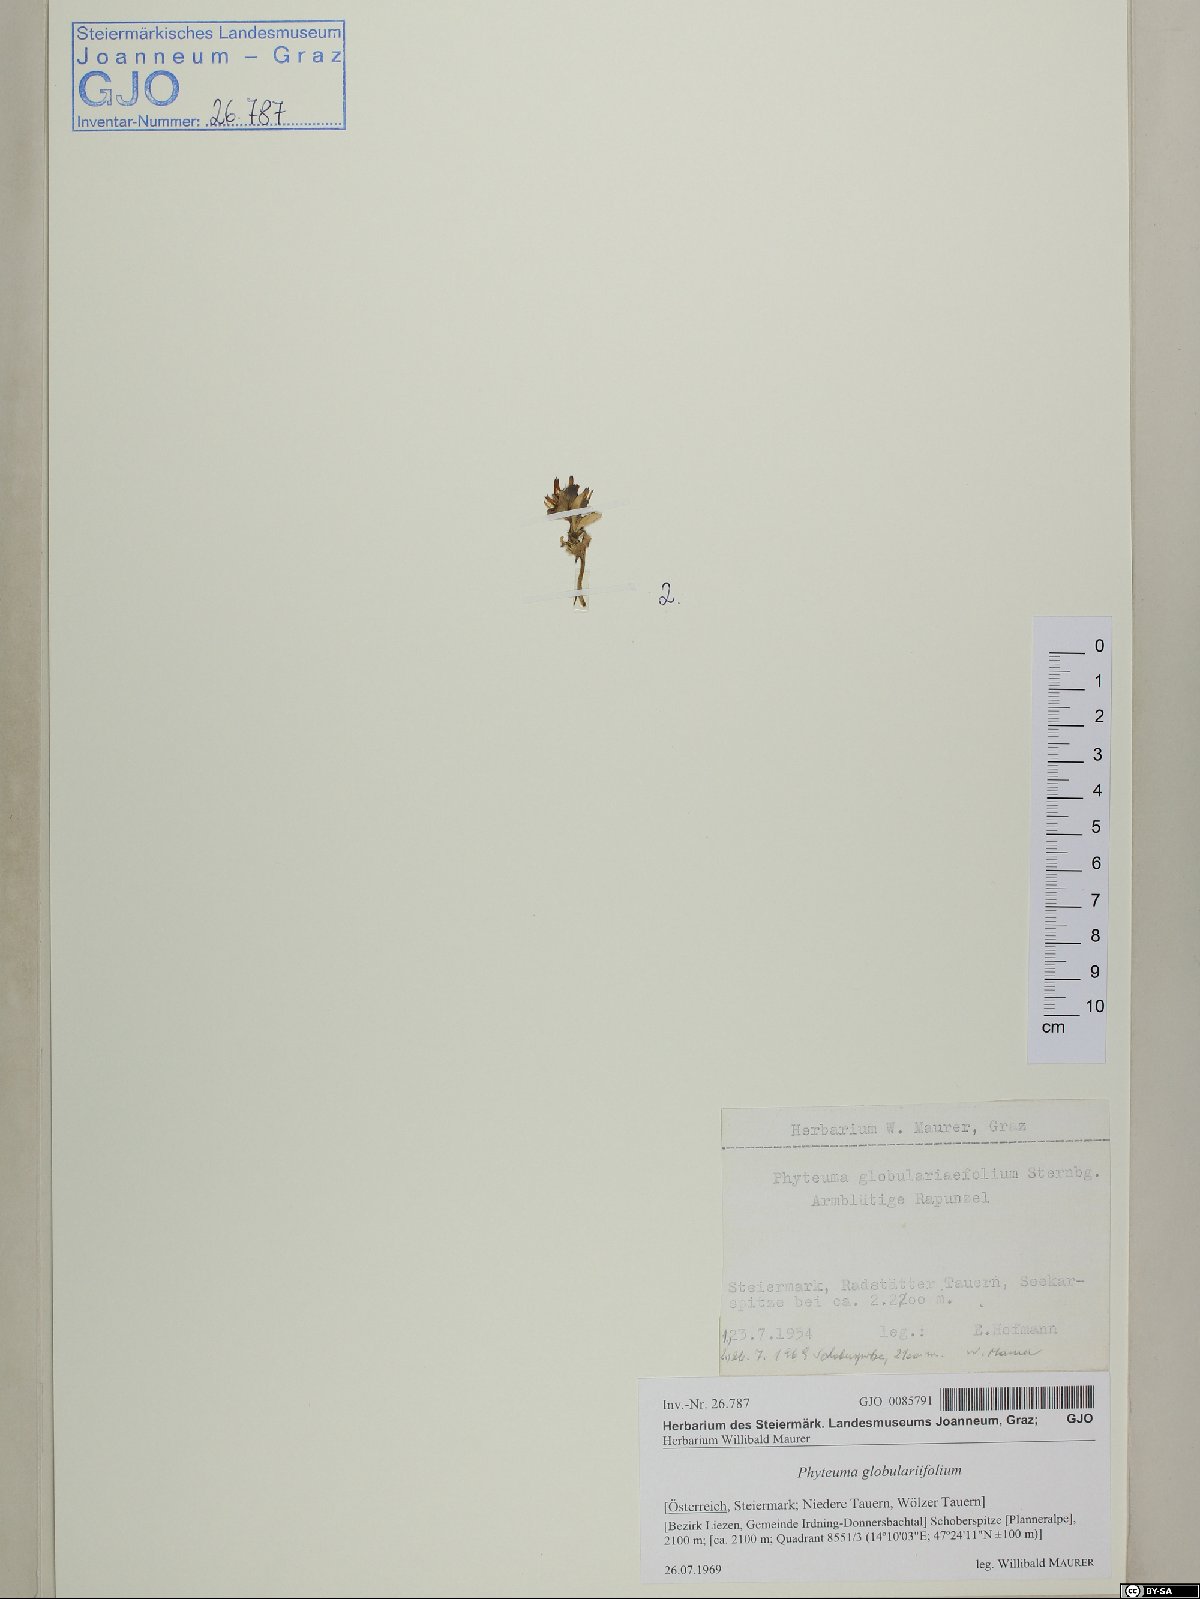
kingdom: Plantae
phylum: Tracheophyta
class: Magnoliopsida
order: Asterales
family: Campanulaceae
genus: Phyteuma
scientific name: Phyteuma globulariifolium
